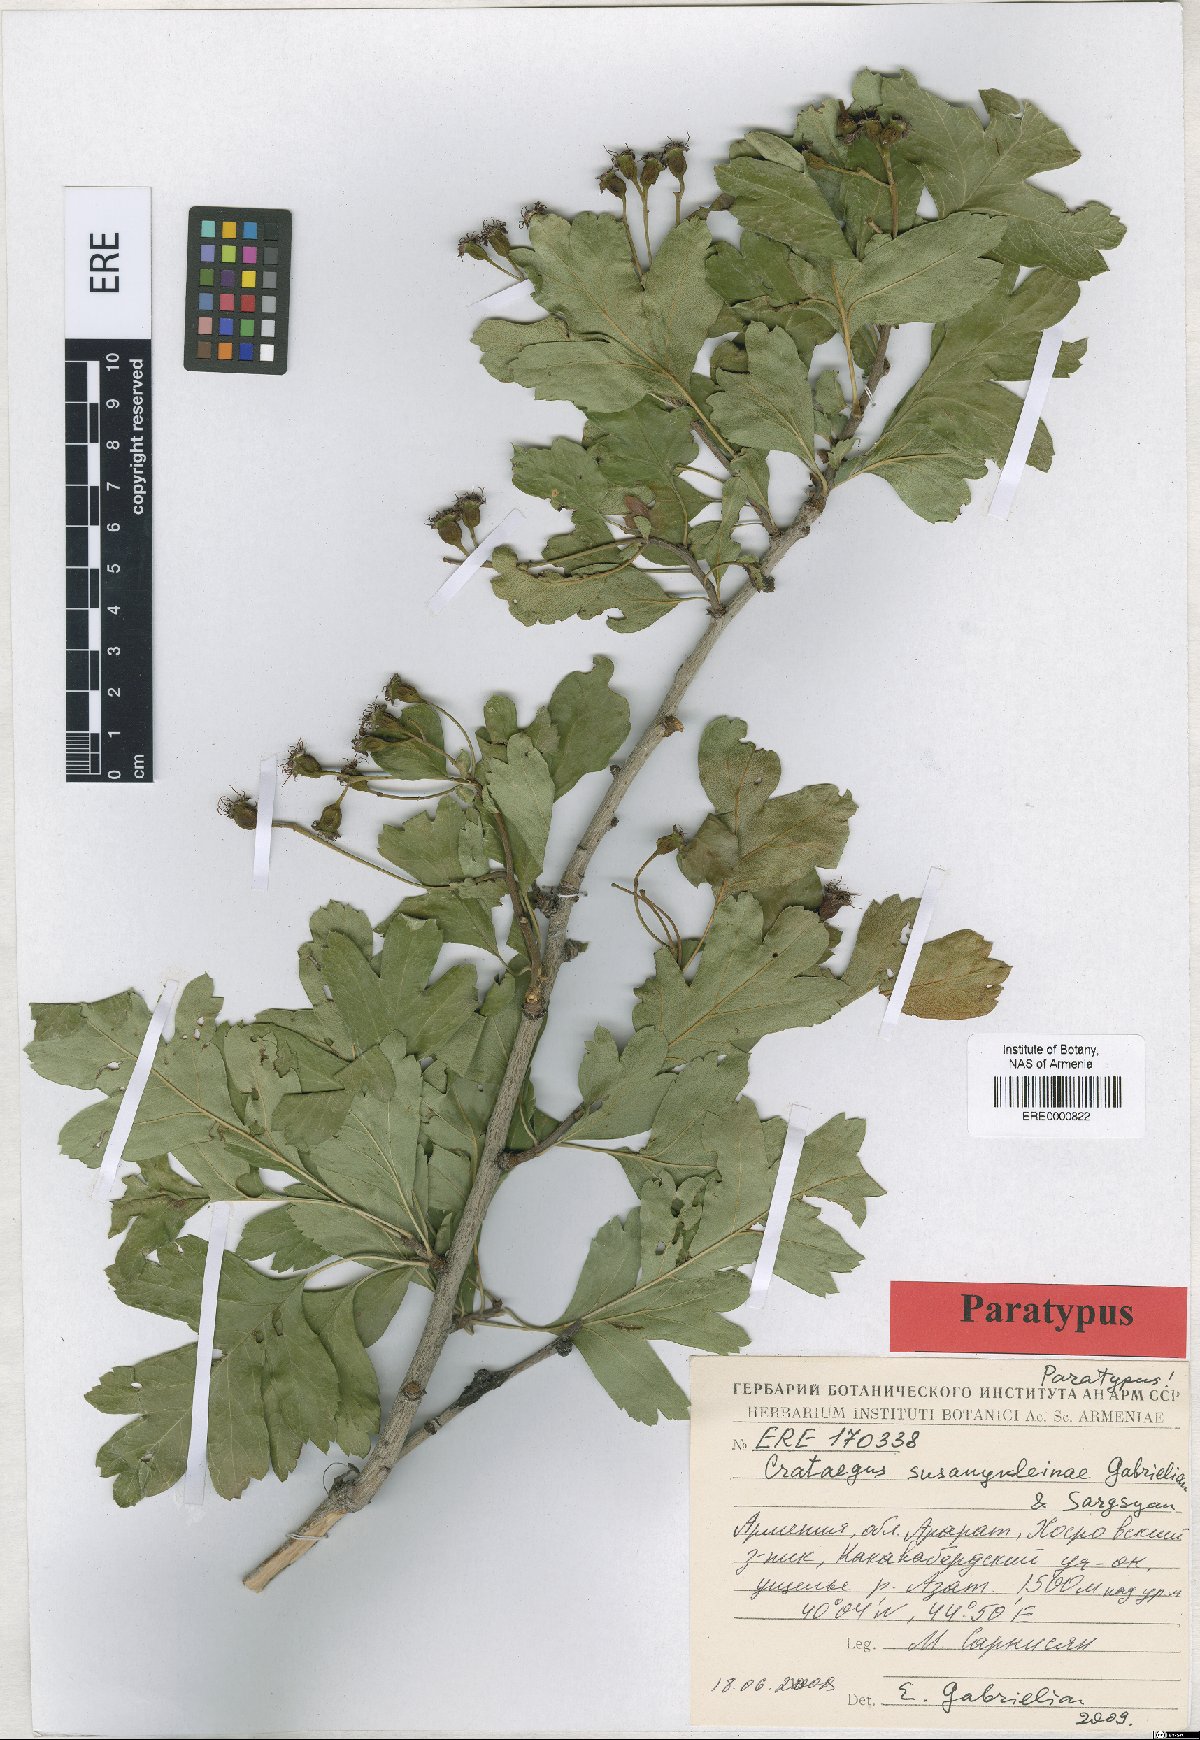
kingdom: Plantae
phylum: Tracheophyta
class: Magnoliopsida
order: Rosales
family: Rosaceae
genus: Crataegus
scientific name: Crataegus
